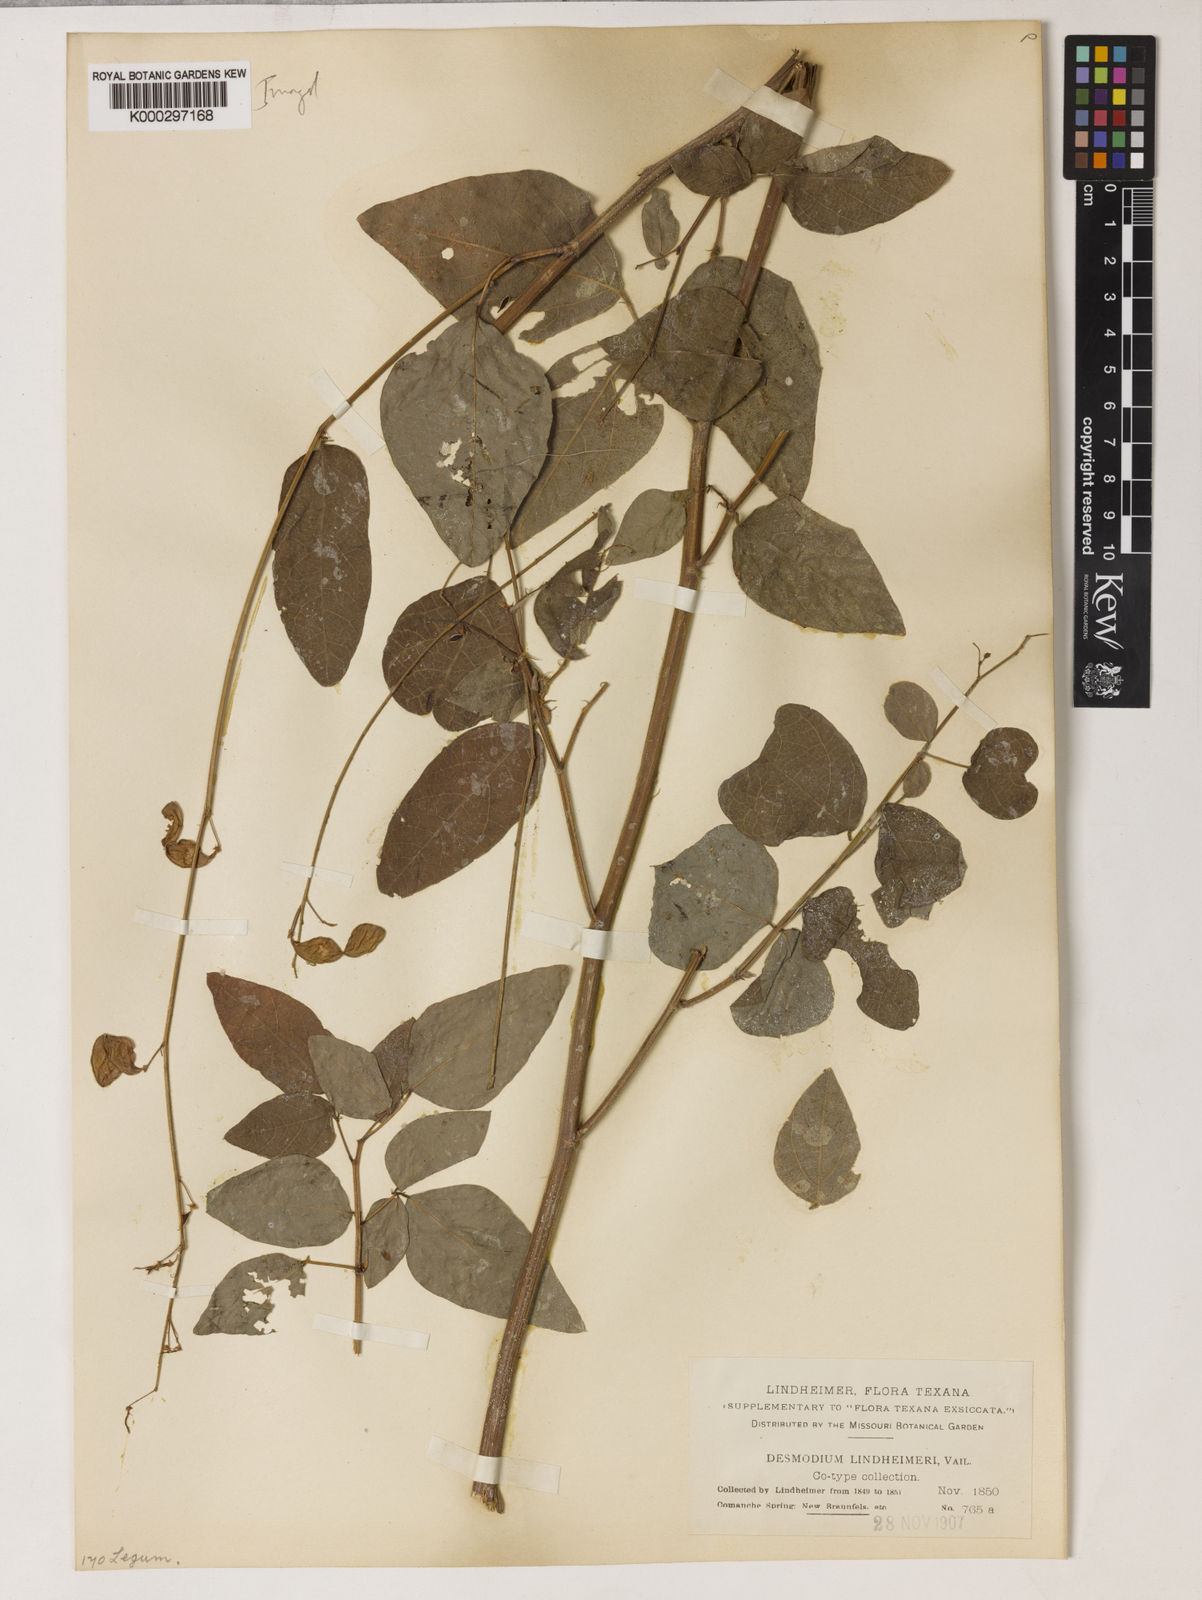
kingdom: Plantae
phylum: Tracheophyta
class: Magnoliopsida
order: Fabales
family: Fabaceae
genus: Desmodium
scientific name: Desmodium lindheimeri
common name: Lindheimer's tick-trefoil
